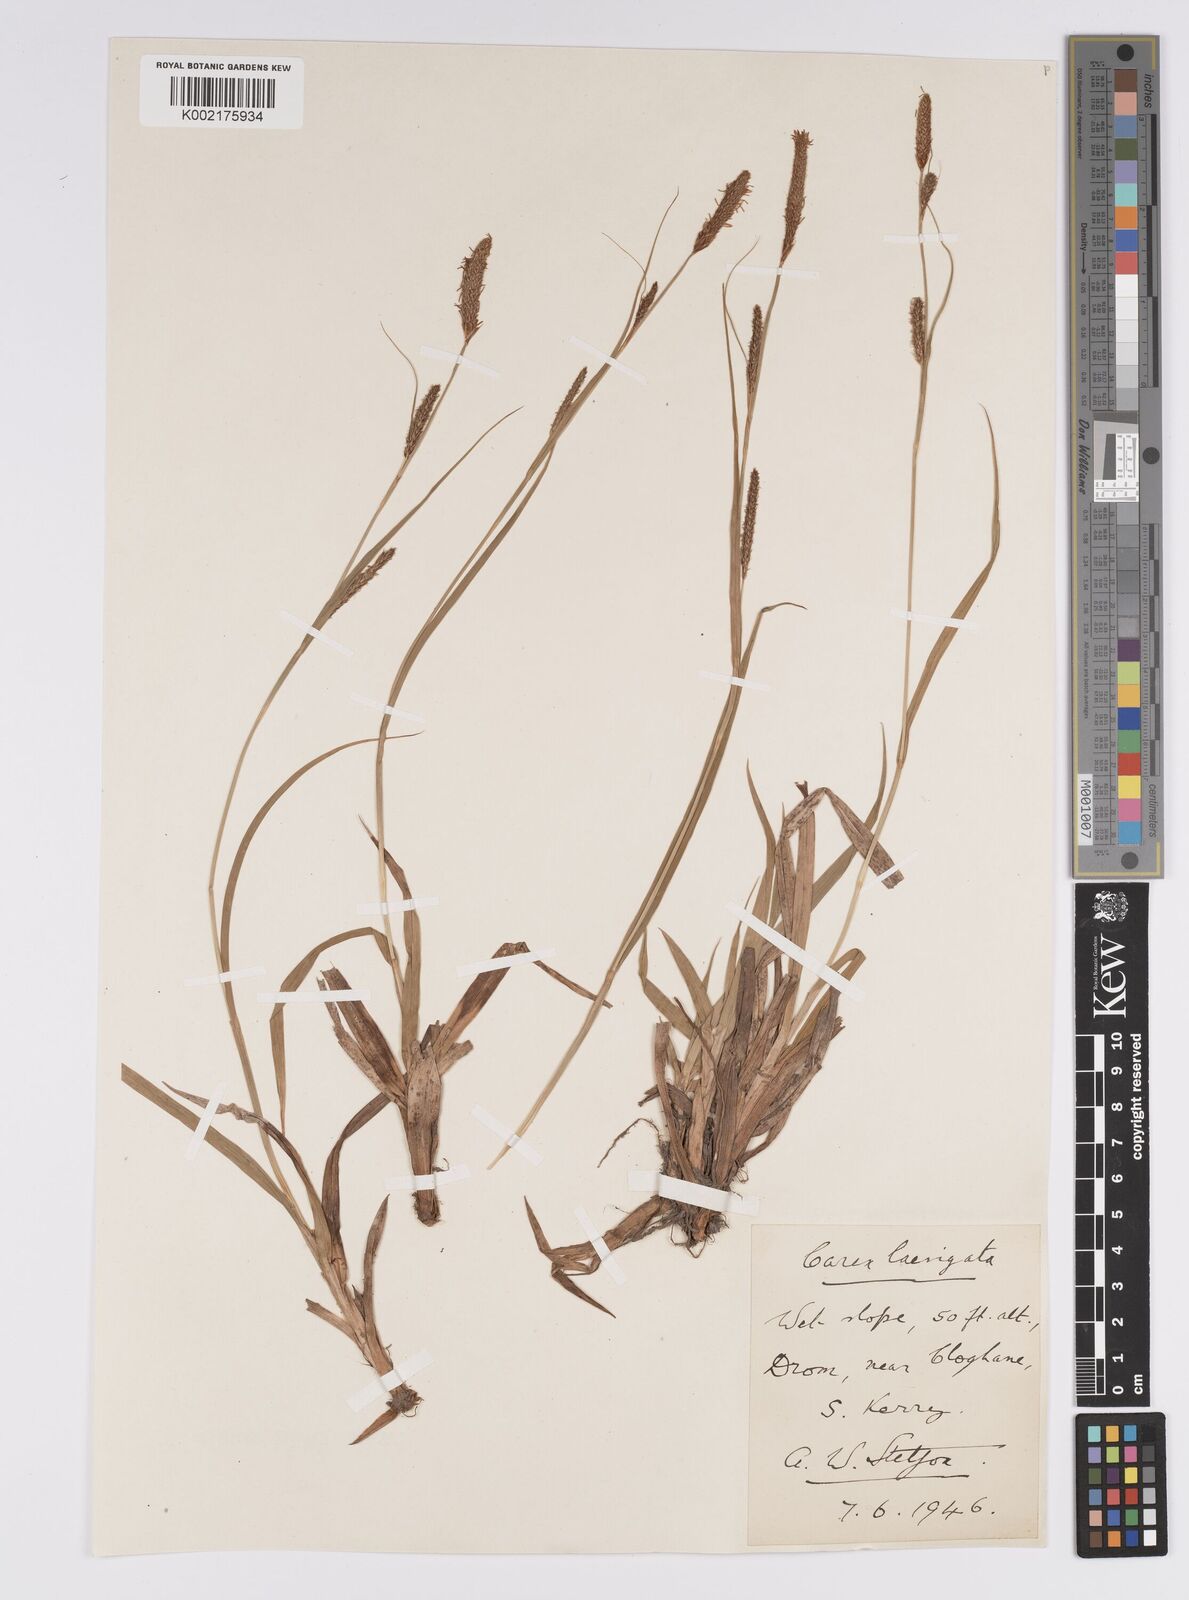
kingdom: Plantae
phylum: Tracheophyta
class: Liliopsida
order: Poales
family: Cyperaceae
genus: Carex
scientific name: Carex laevigata
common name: Smooth-stalked sedge
